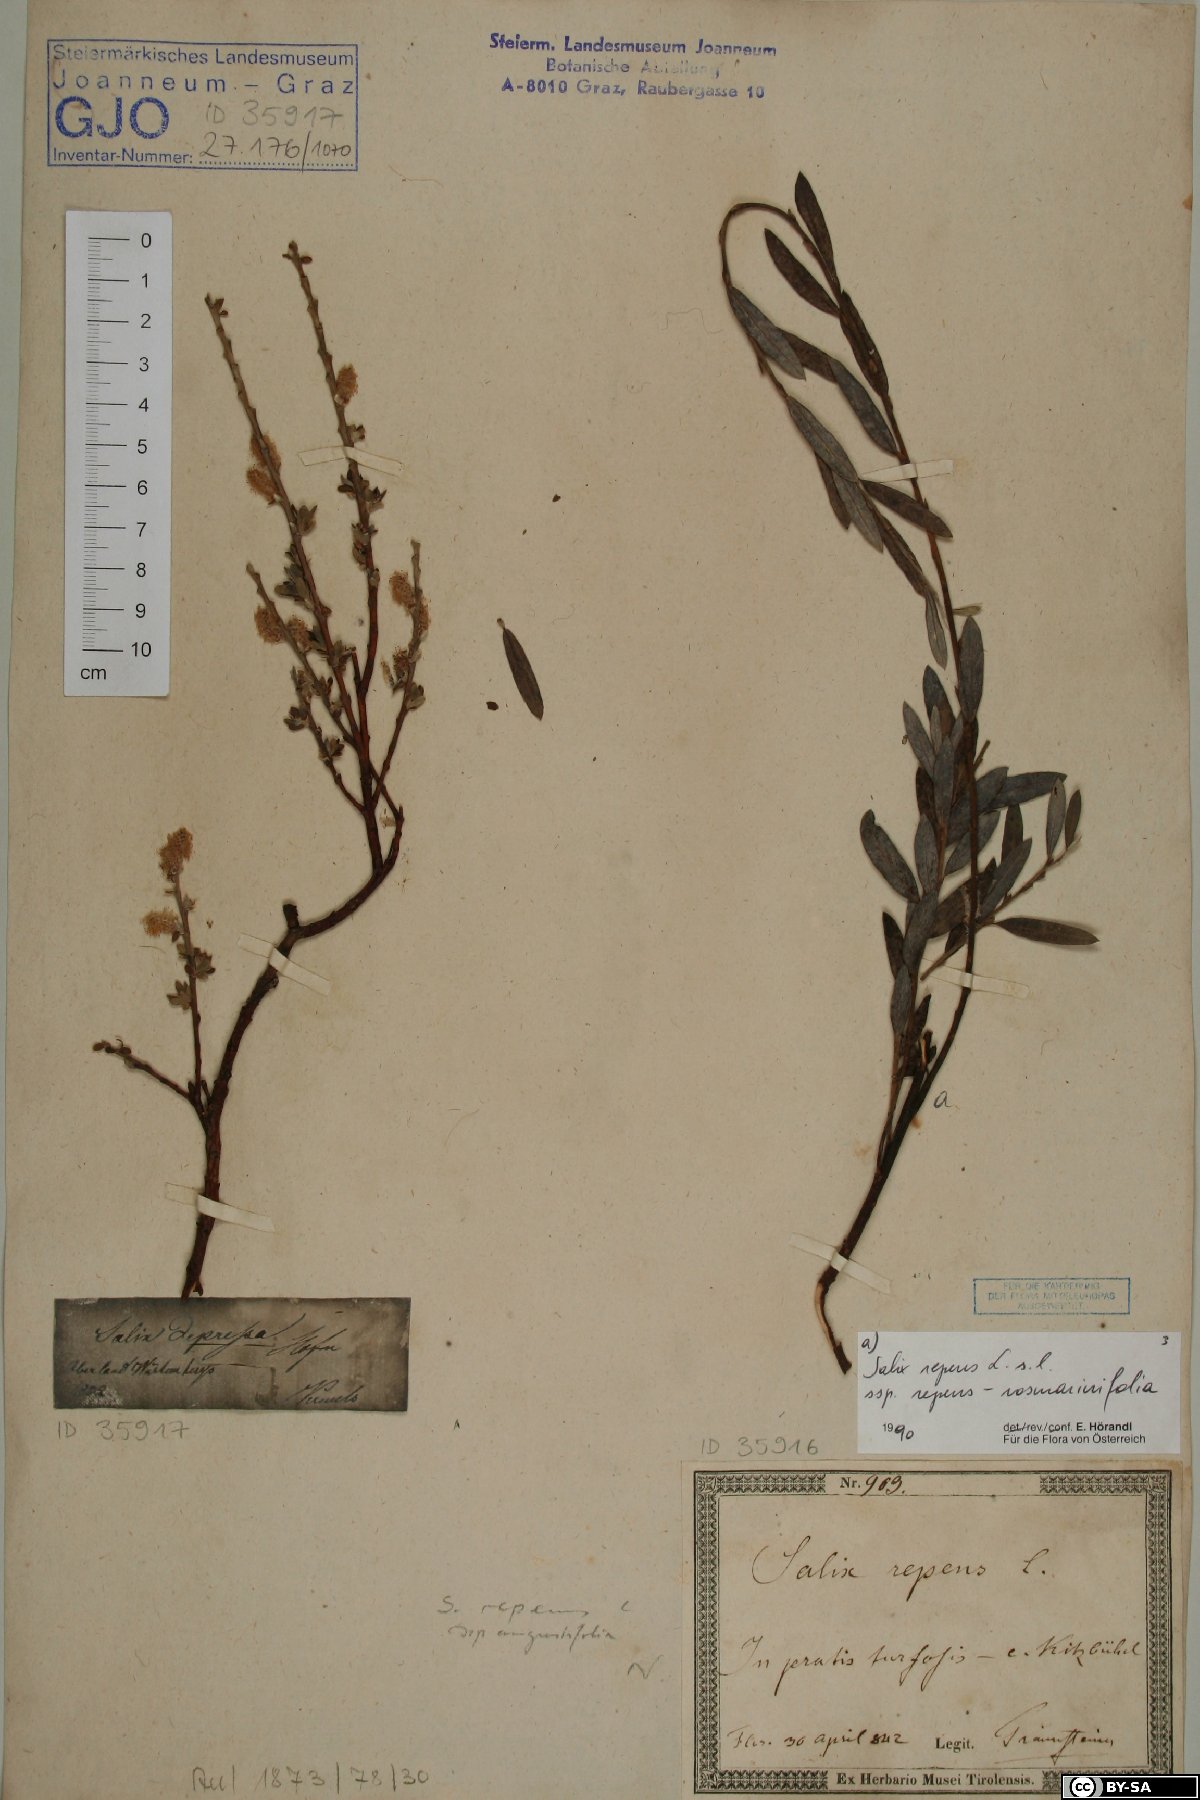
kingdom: Plantae
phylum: Tracheophyta
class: Magnoliopsida
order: Malpighiales
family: Salicaceae
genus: Salix
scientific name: Salix lanata
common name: Woolly willow
